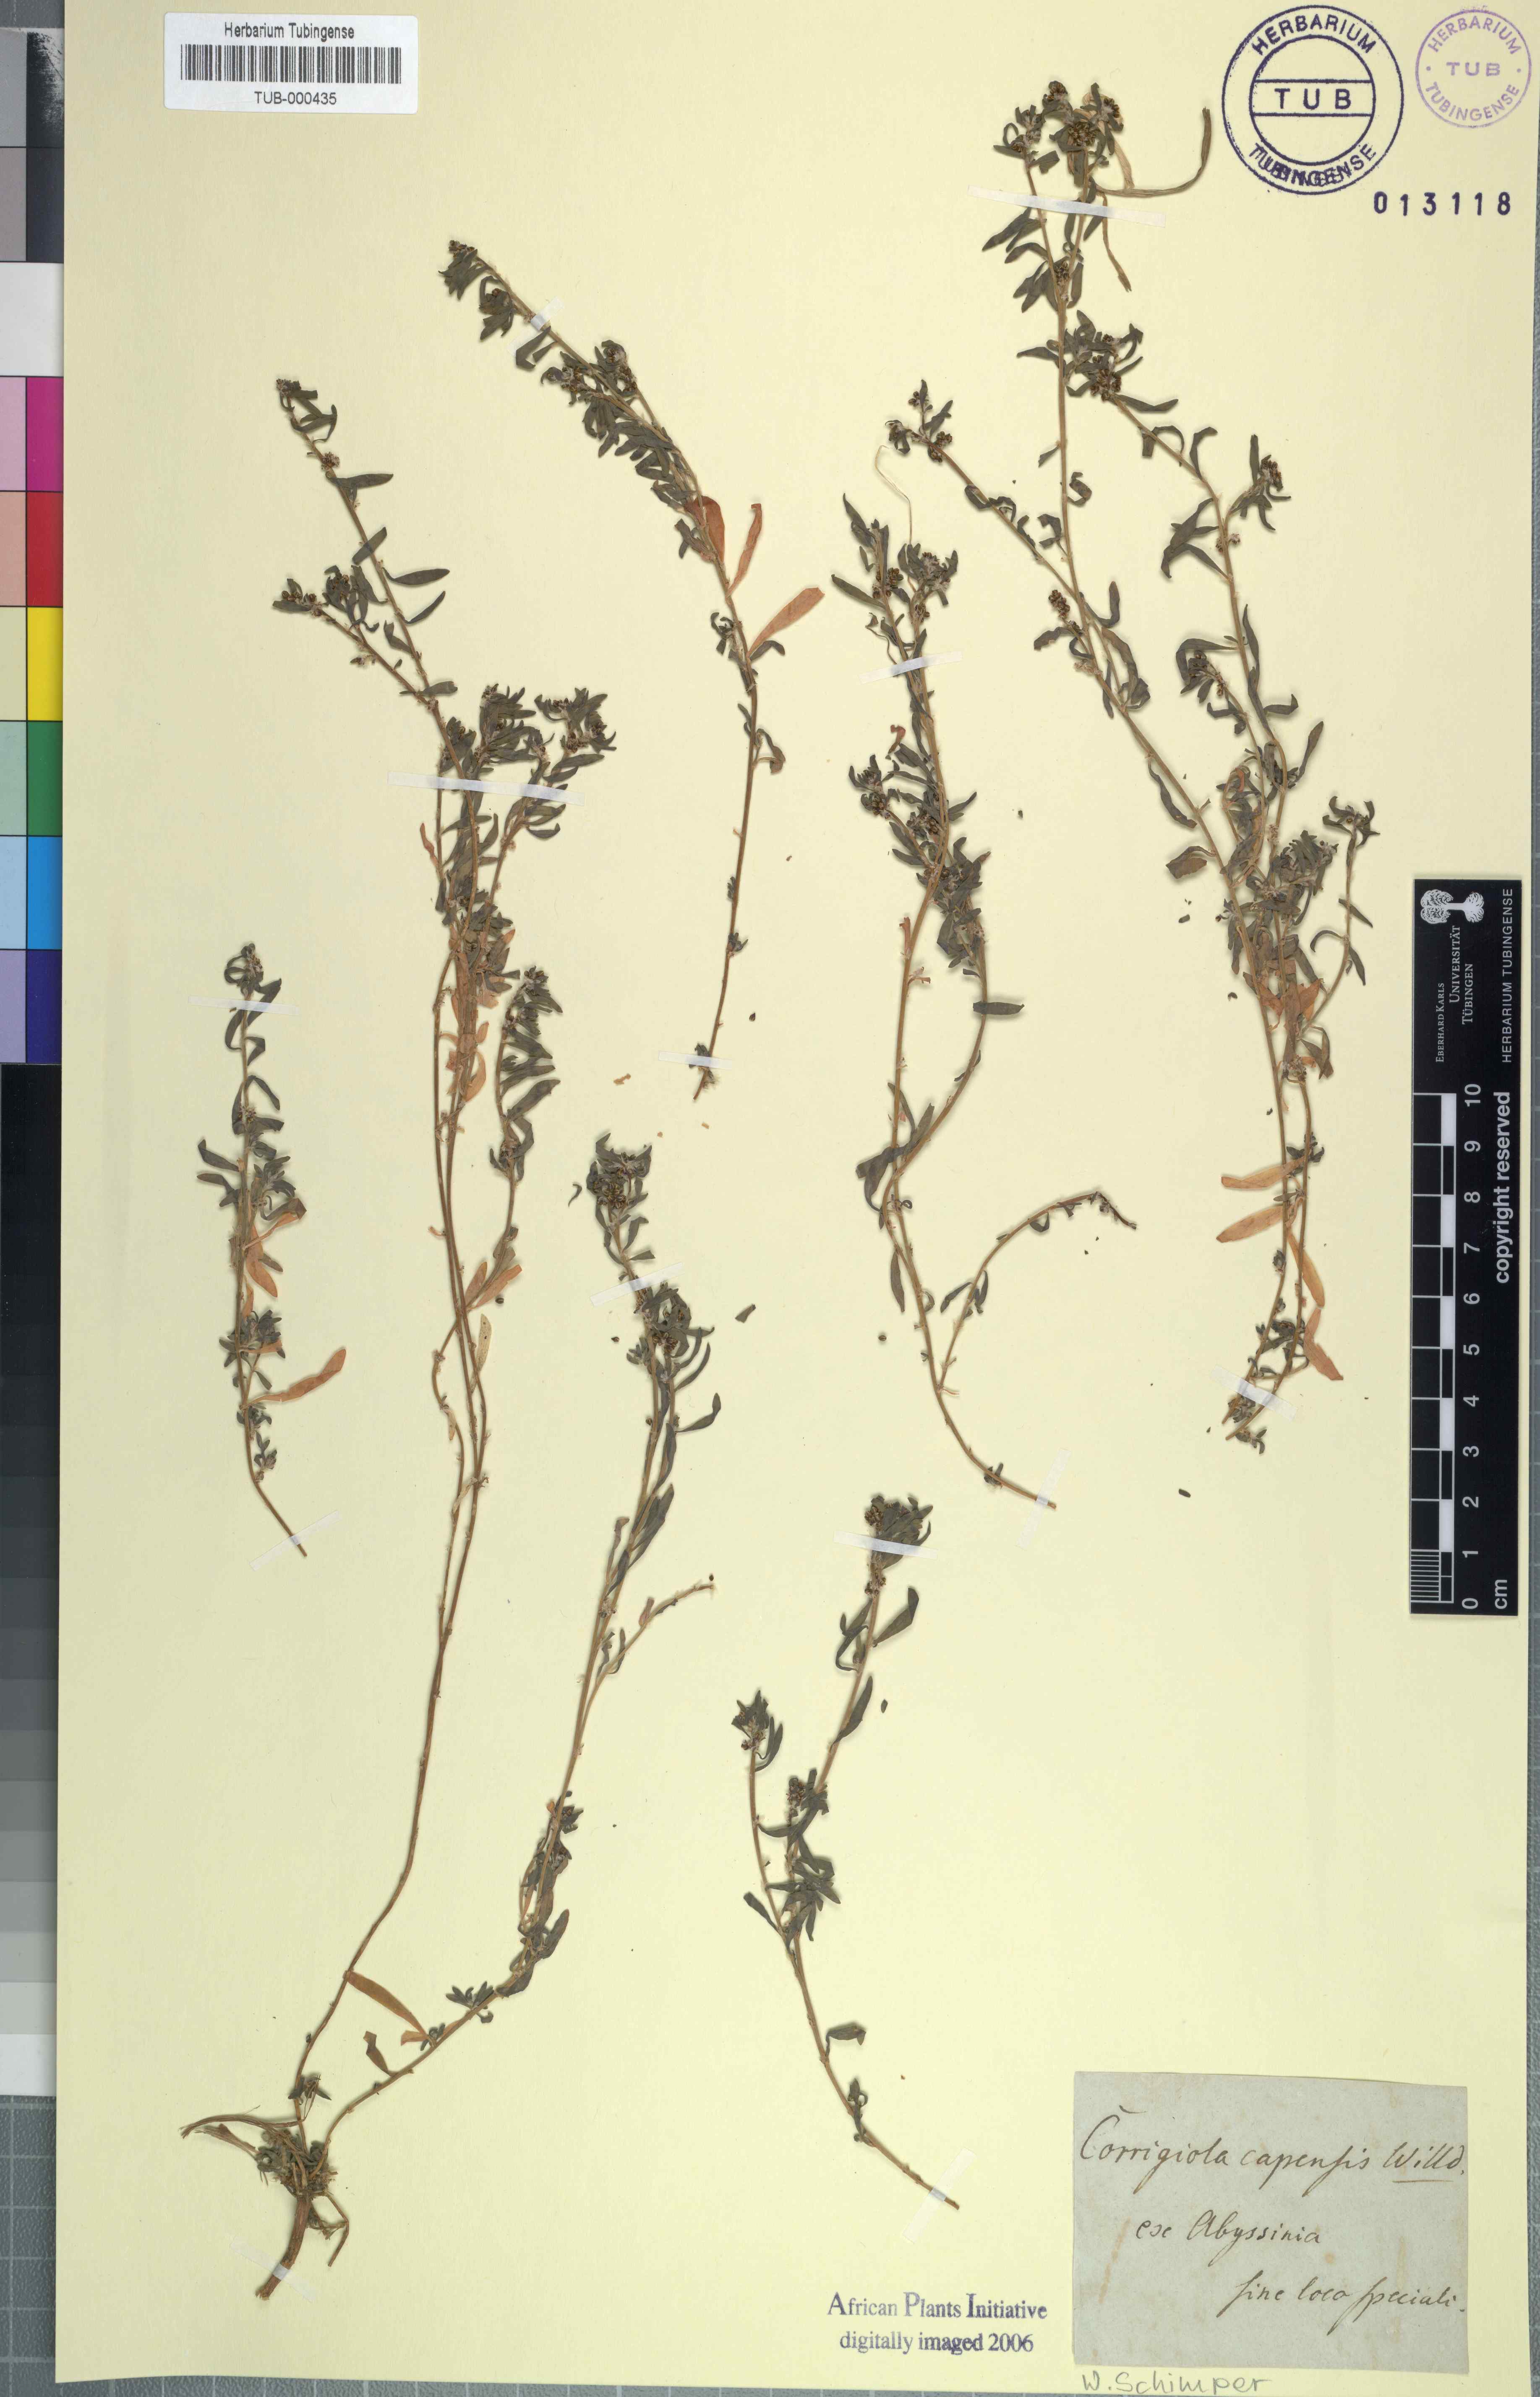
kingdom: Plantae
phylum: Tracheophyta
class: Magnoliopsida
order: Caryophyllales
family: Caryophyllaceae
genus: Corrigiola
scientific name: Corrigiola capensis
